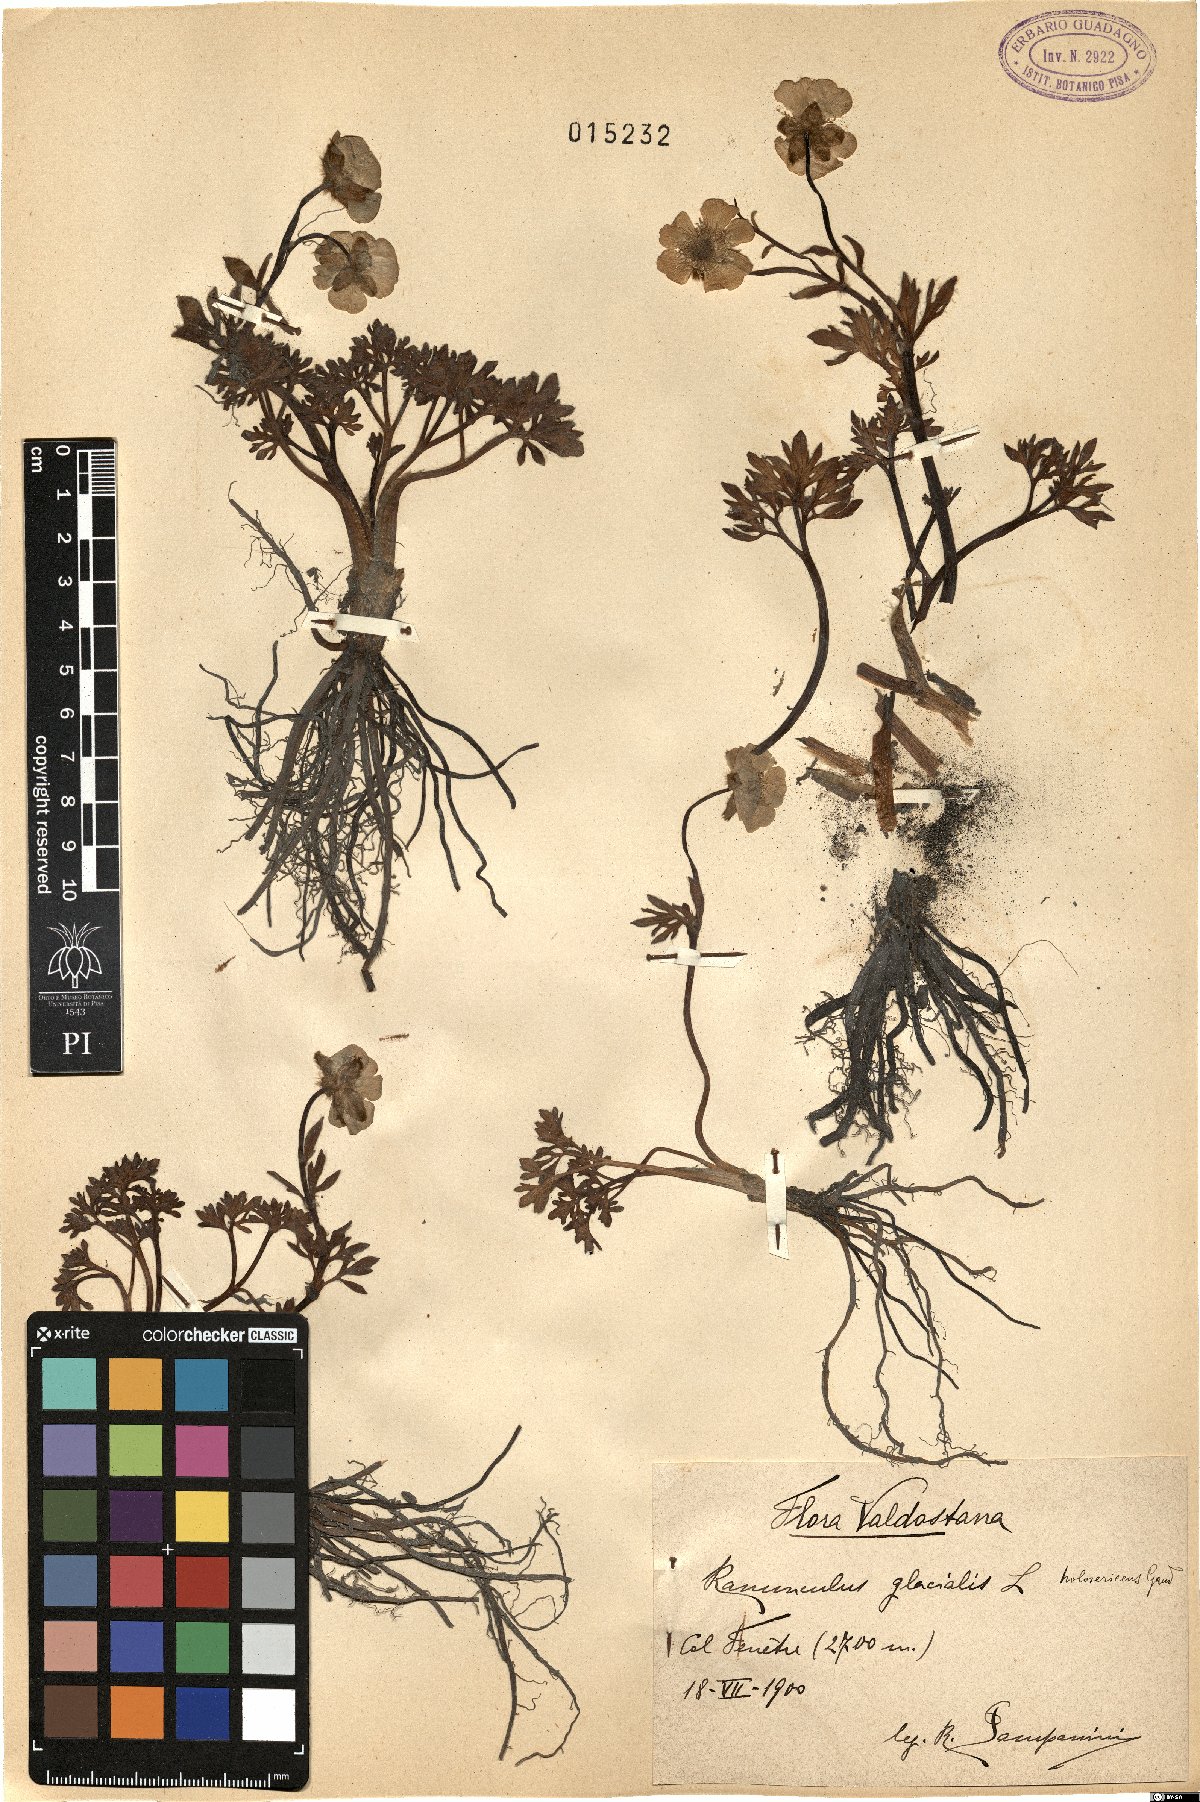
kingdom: Plantae
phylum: Tracheophyta
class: Magnoliopsida
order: Ranunculales
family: Ranunculaceae
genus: Ranunculus
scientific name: Ranunculus glacialis
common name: Glacier buttercup
